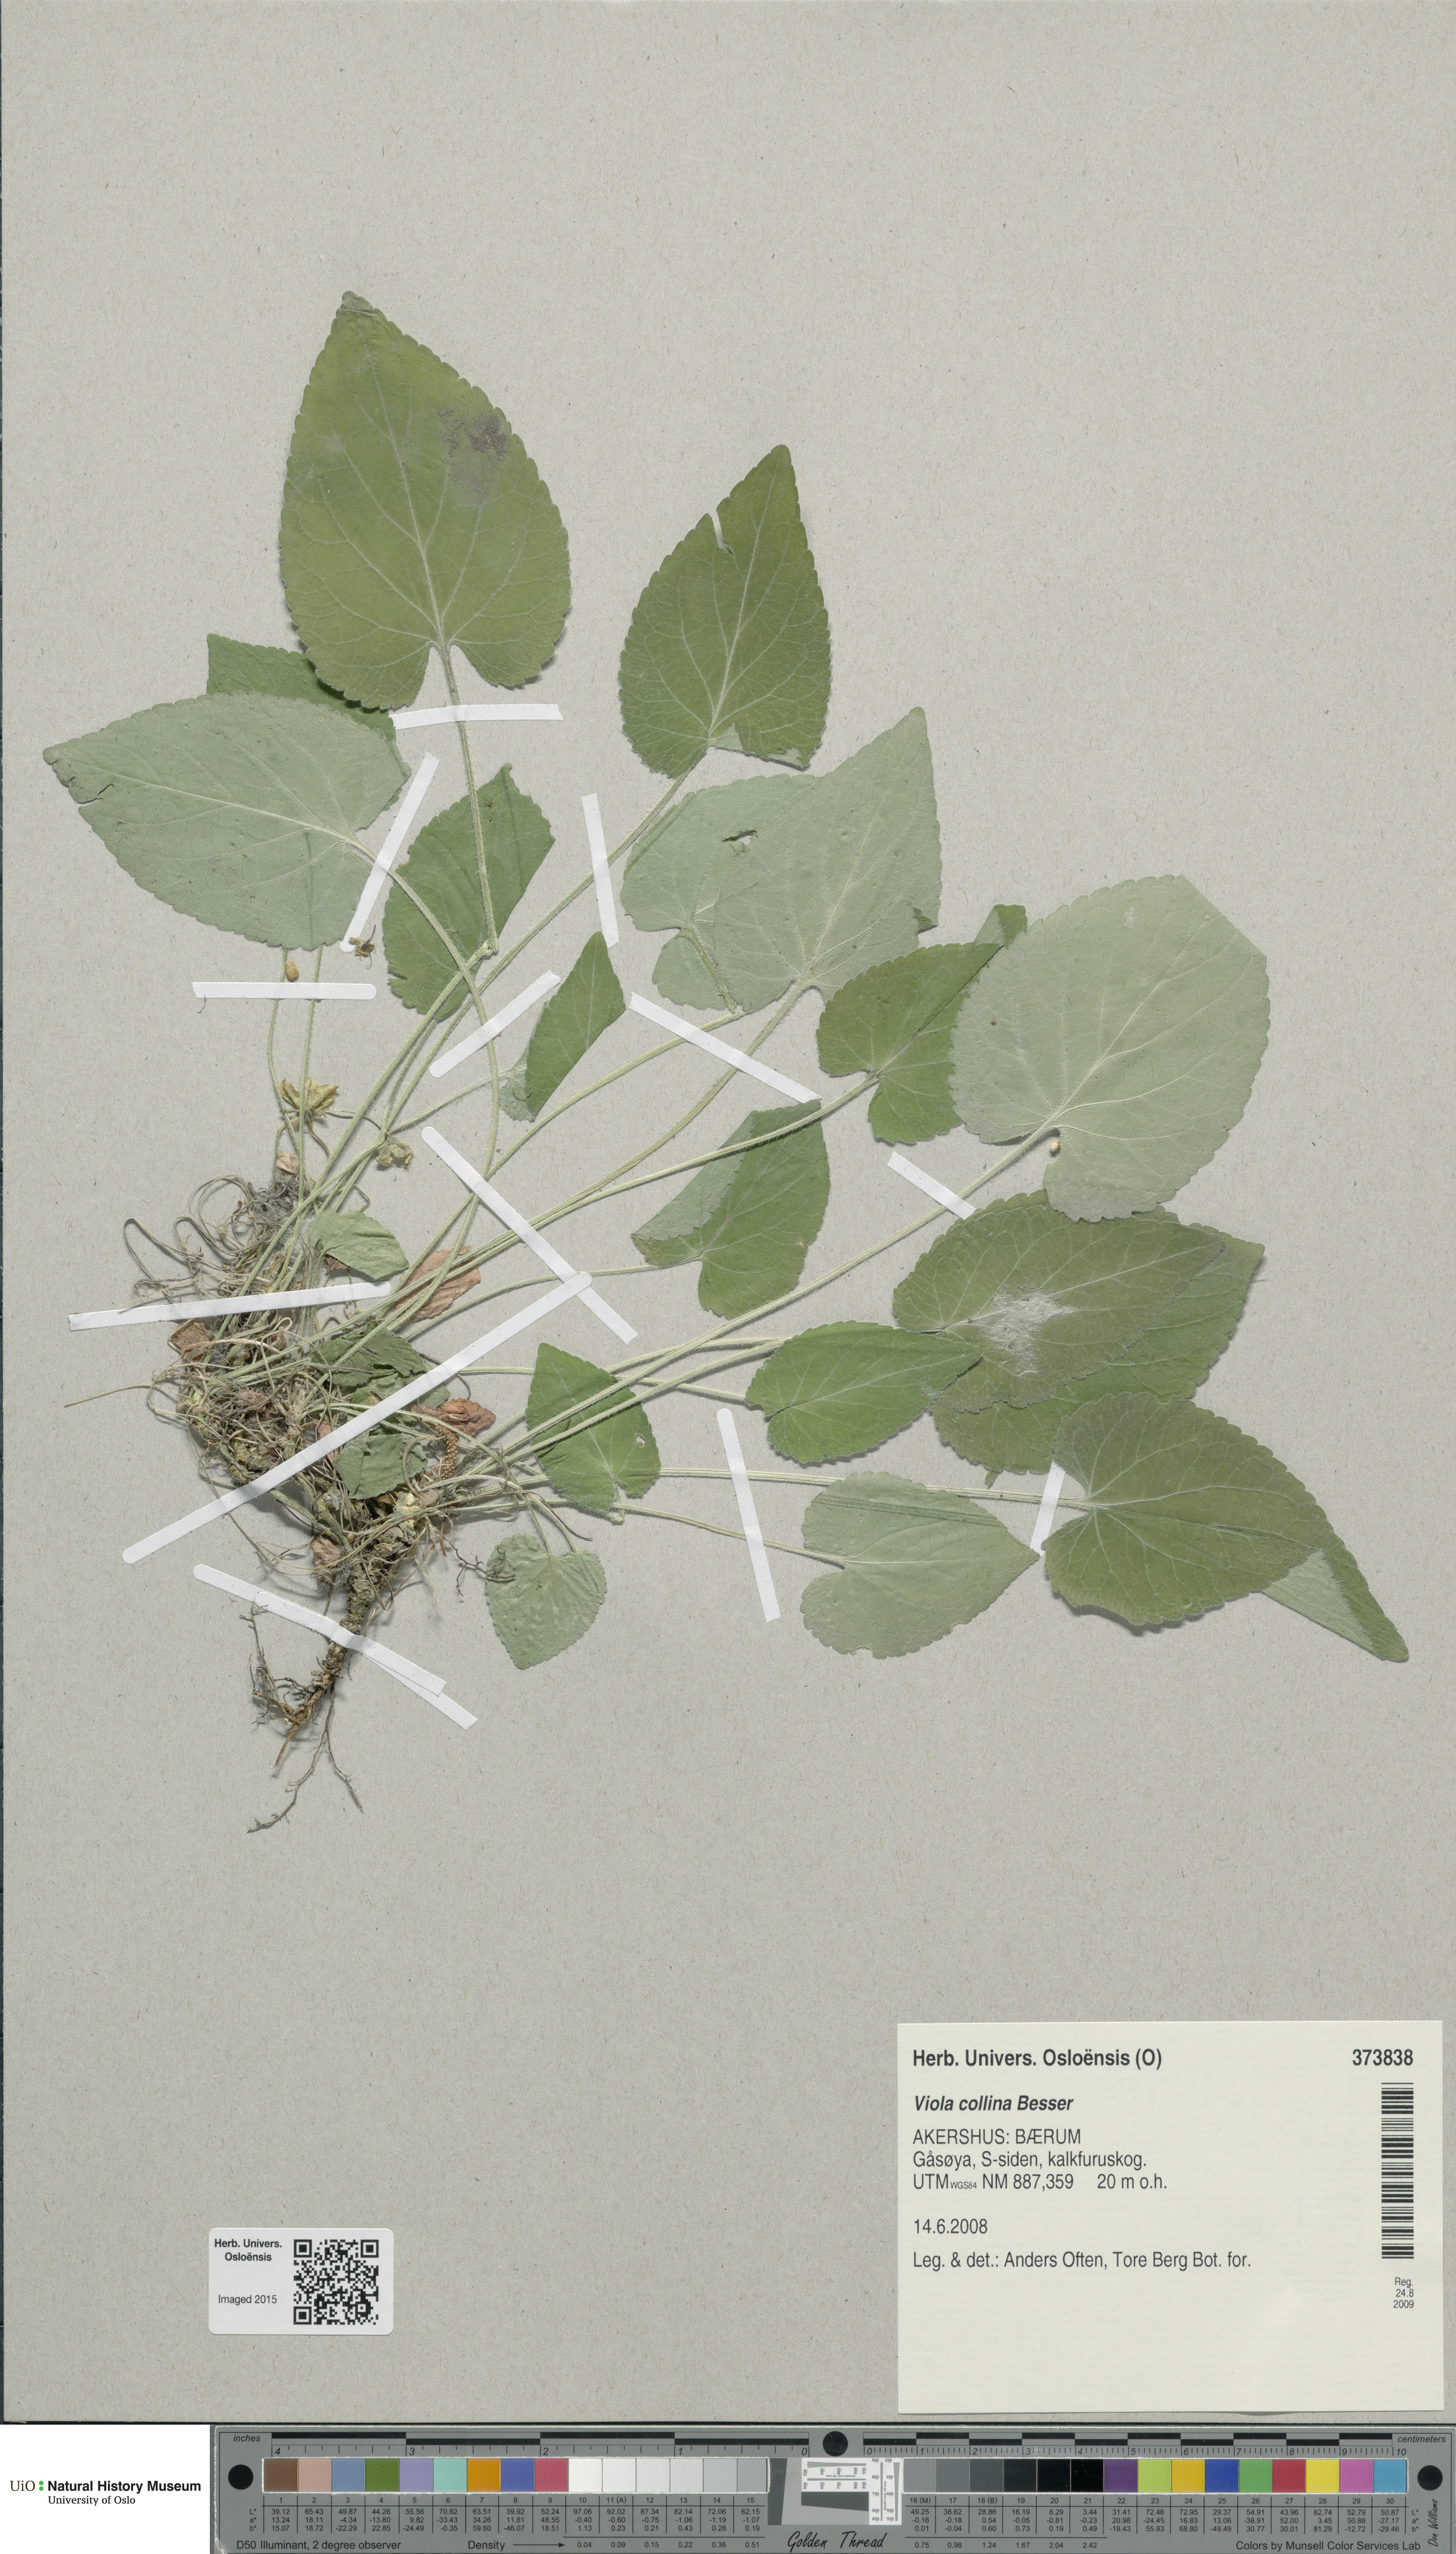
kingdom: Plantae
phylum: Tracheophyta
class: Magnoliopsida
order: Malpighiales
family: Violaceae
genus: Viola
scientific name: Viola collina
